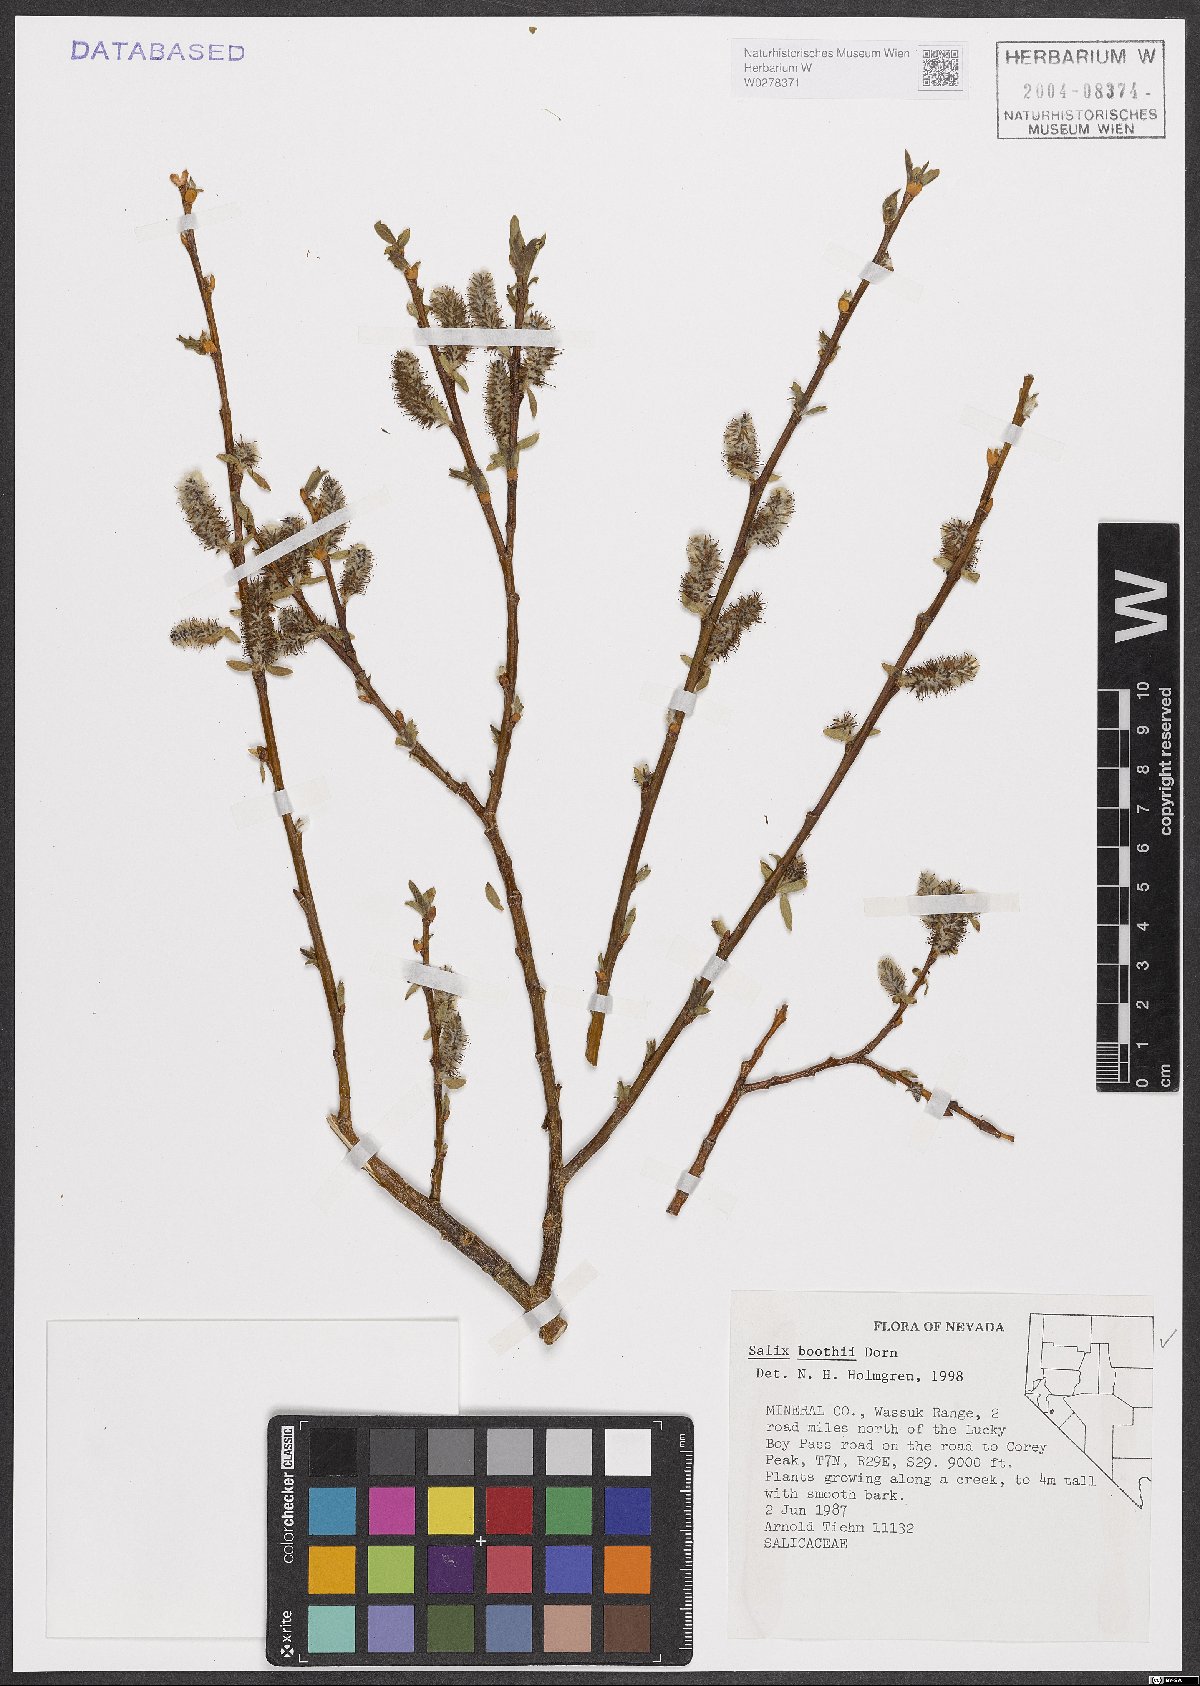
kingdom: Plantae
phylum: Tracheophyta
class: Magnoliopsida
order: Malpighiales
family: Salicaceae
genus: Salix
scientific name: Salix boothii
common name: Booth's willow
